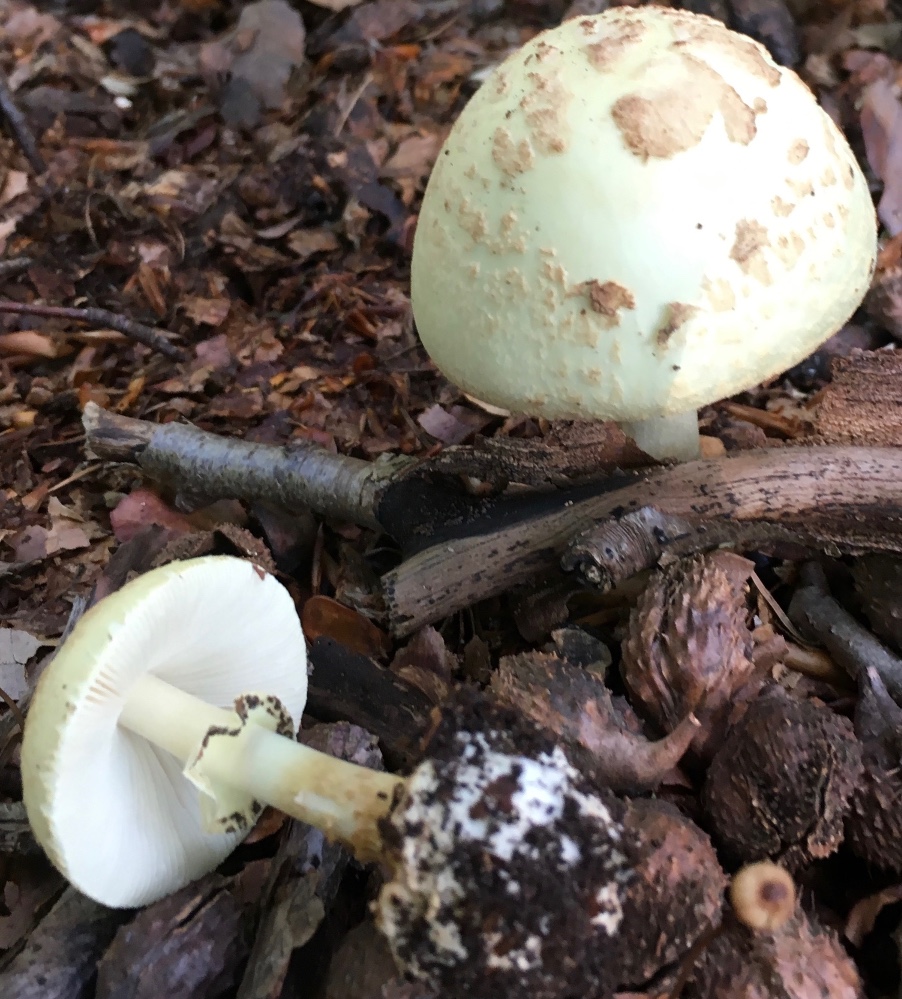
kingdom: Fungi
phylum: Basidiomycota
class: Agaricomycetes
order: Agaricales
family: Amanitaceae
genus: Amanita
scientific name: Amanita citrina
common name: kugleknoldet fluesvamp
